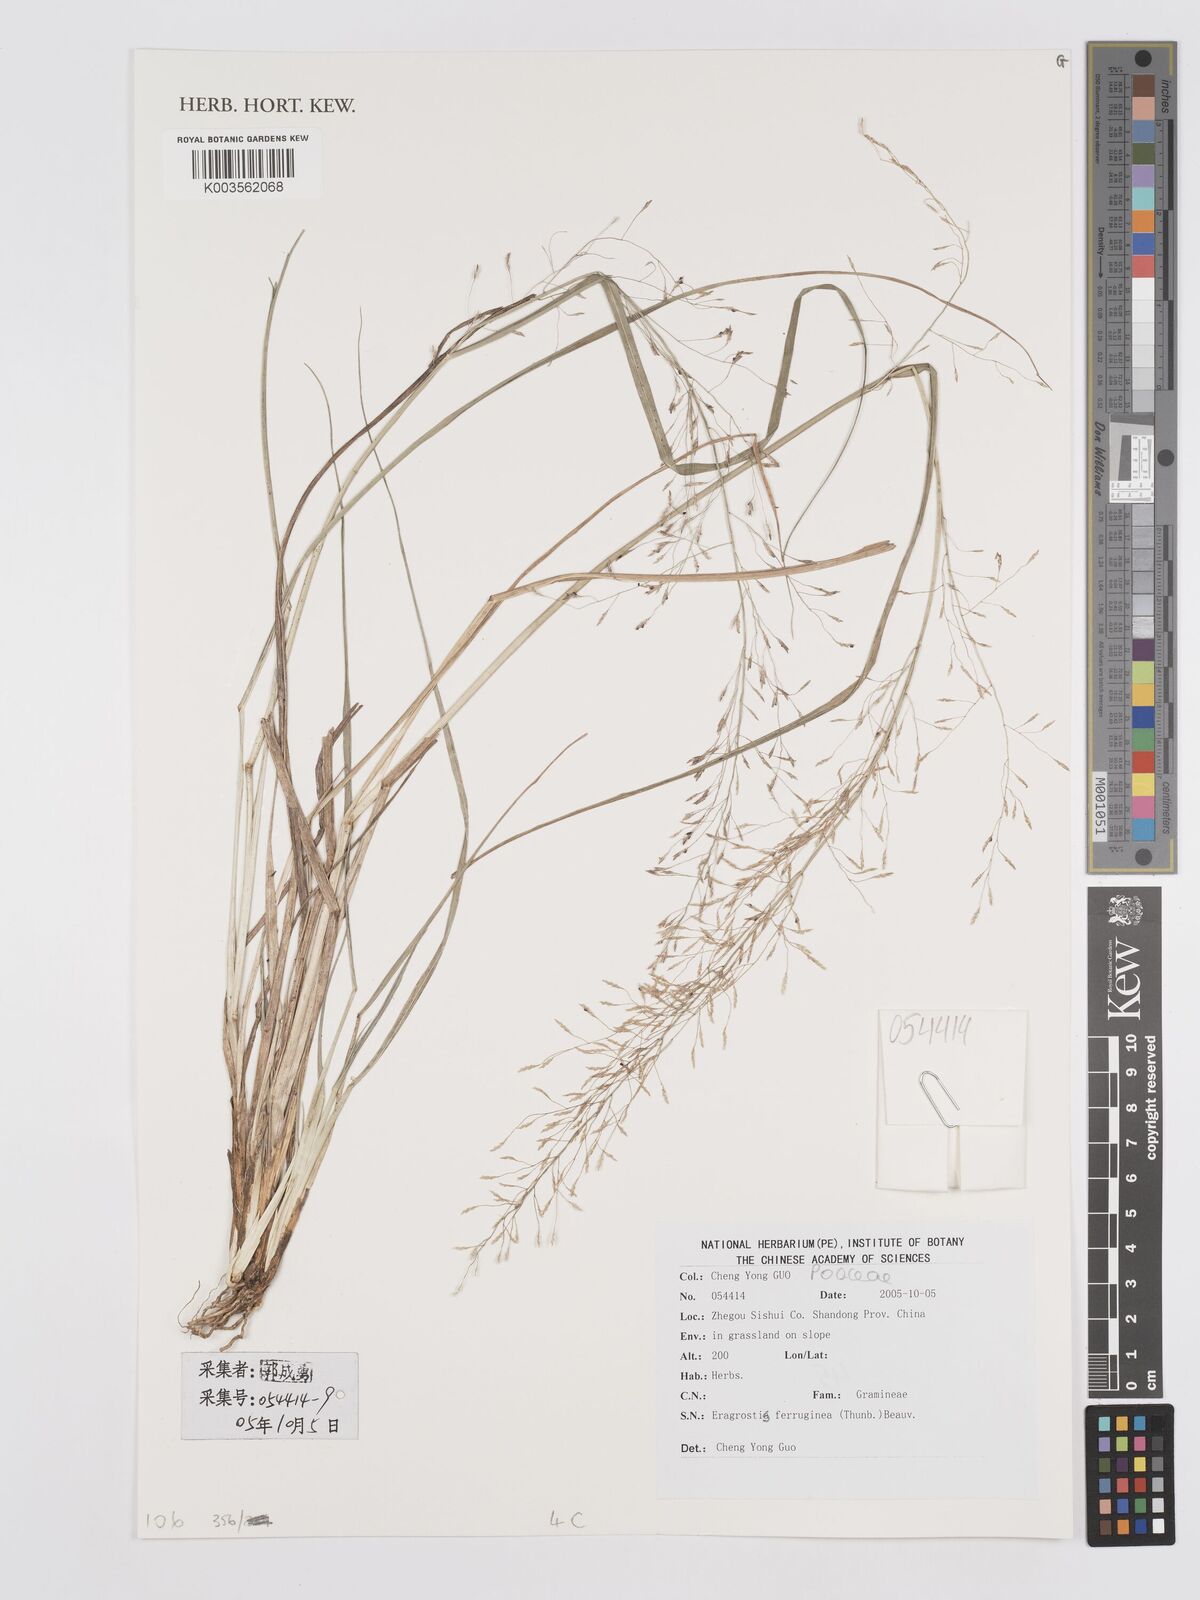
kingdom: Plantae
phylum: Tracheophyta
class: Liliopsida
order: Poales
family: Poaceae
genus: Eragrostis
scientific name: Eragrostis ferruginea
